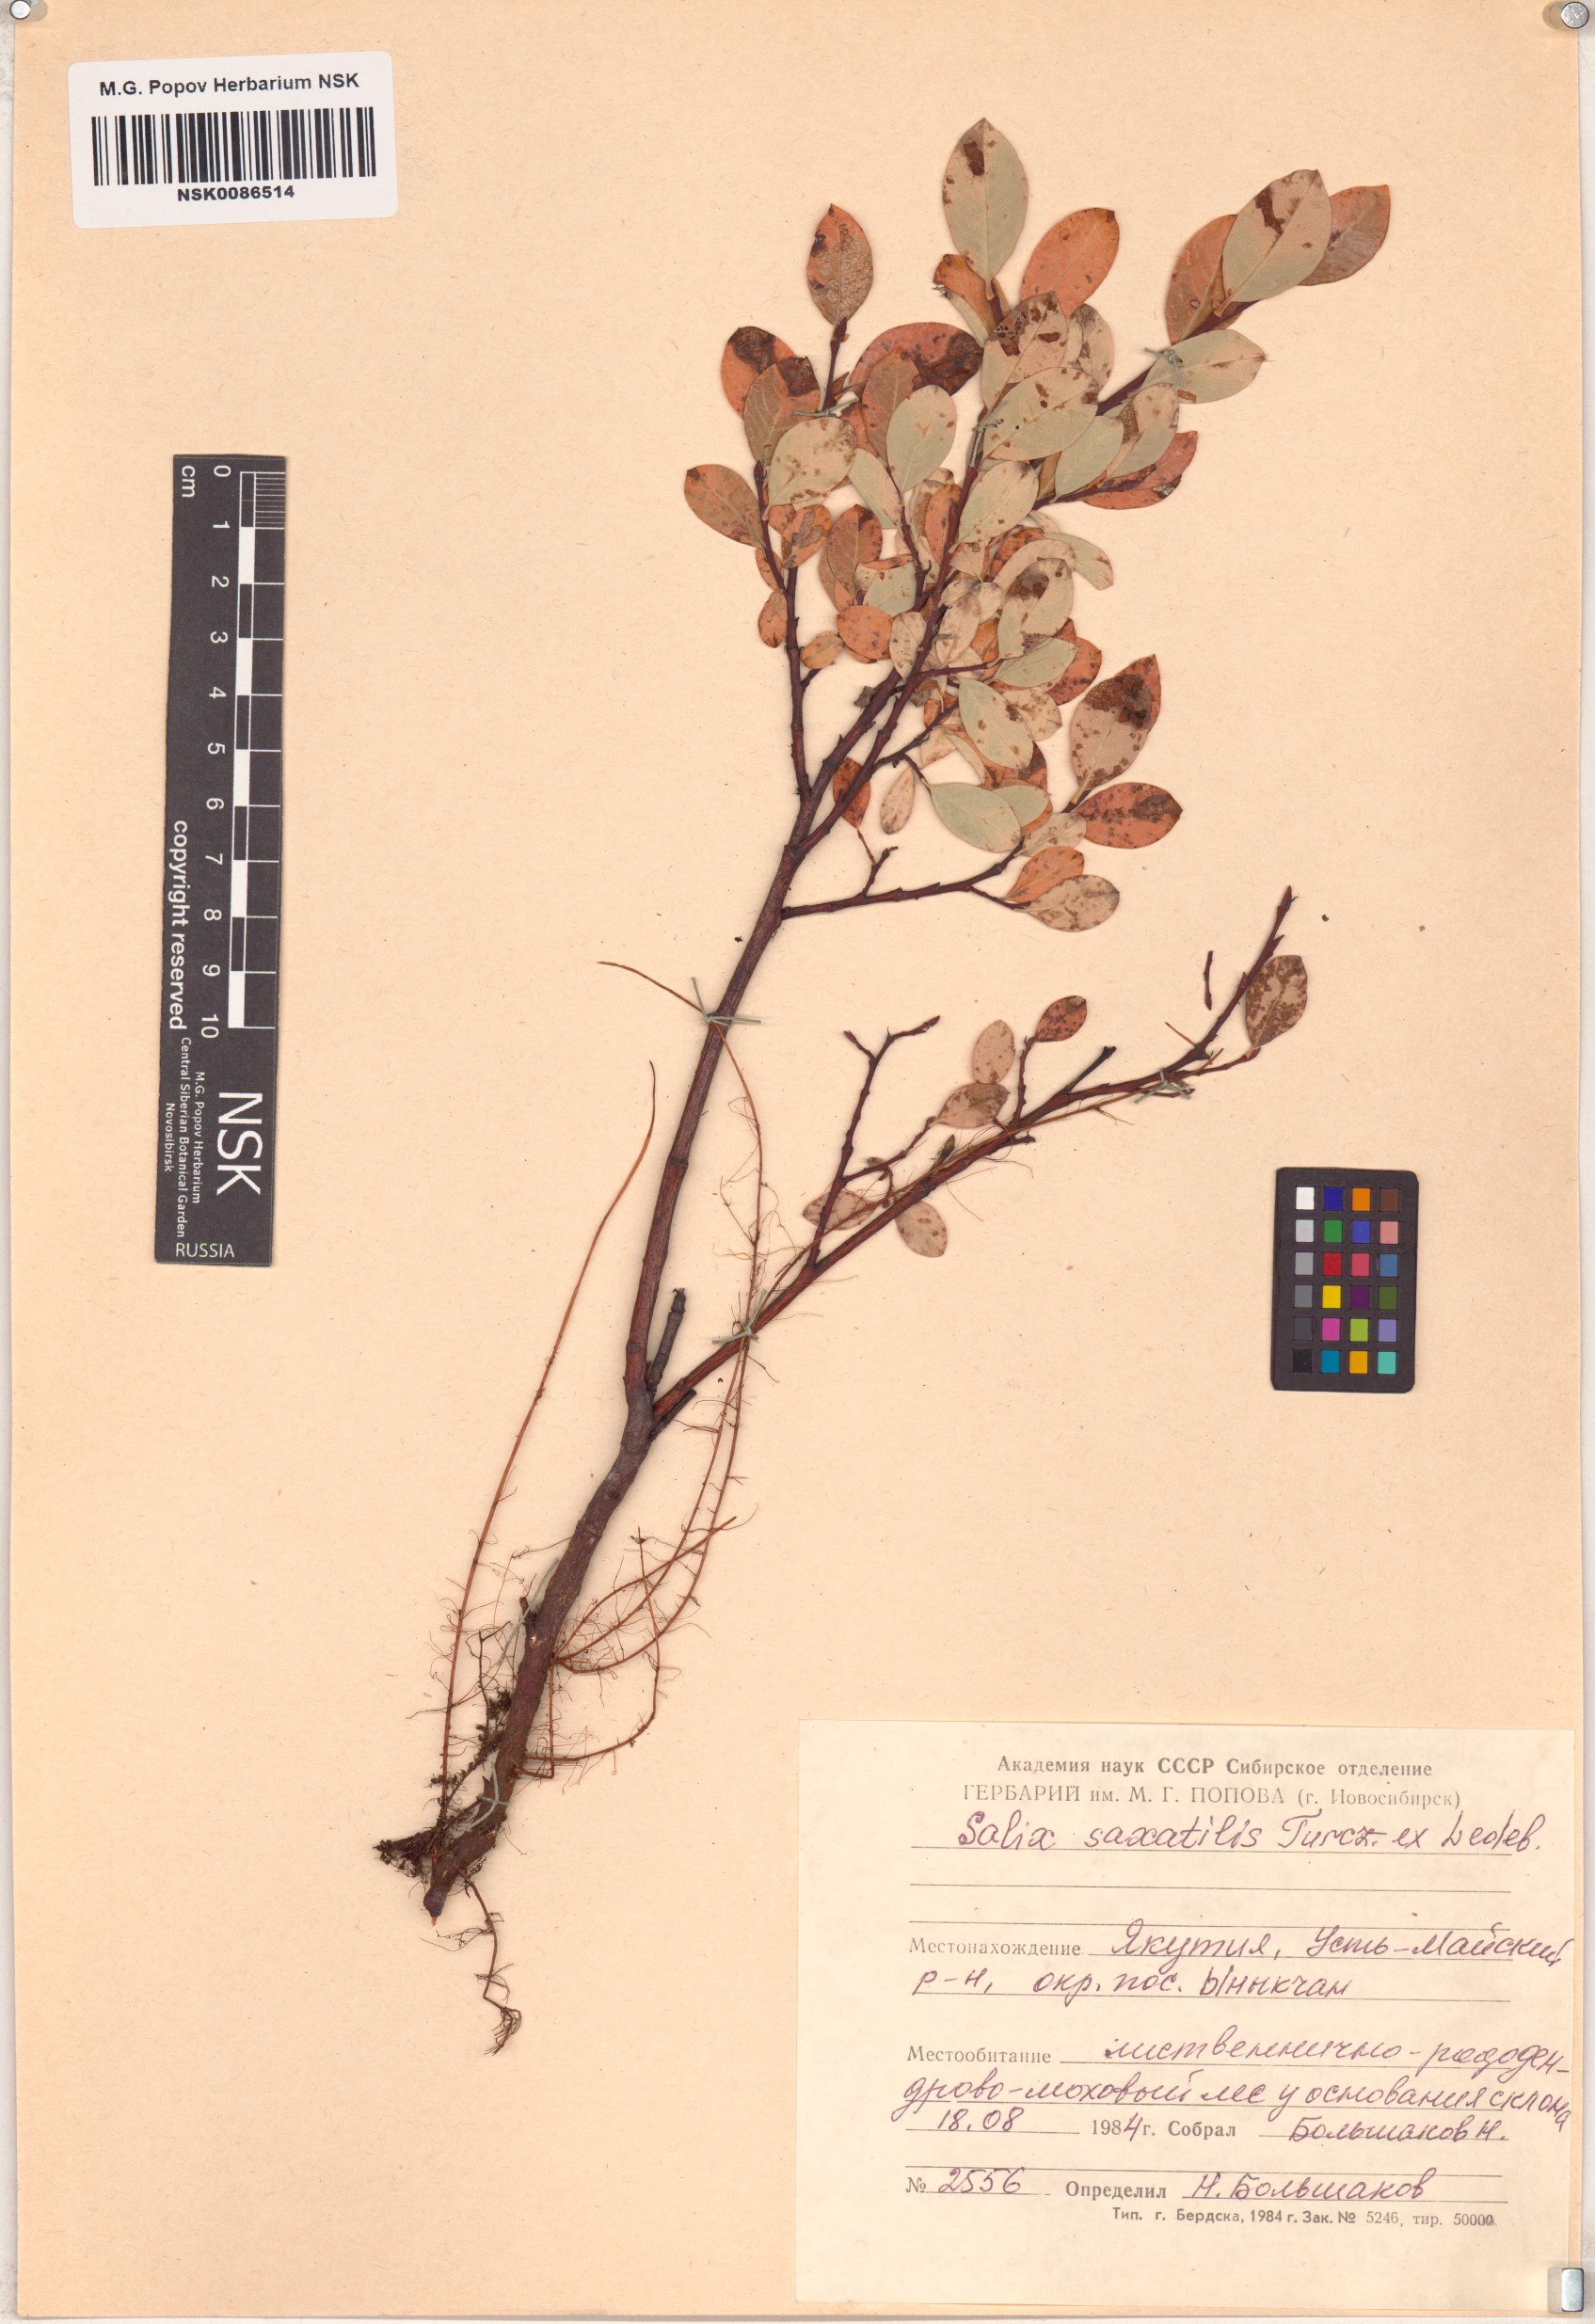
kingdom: Plantae
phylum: Tracheophyta
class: Magnoliopsida
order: Malpighiales
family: Salicaceae
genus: Salix
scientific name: Salix saxatilis
